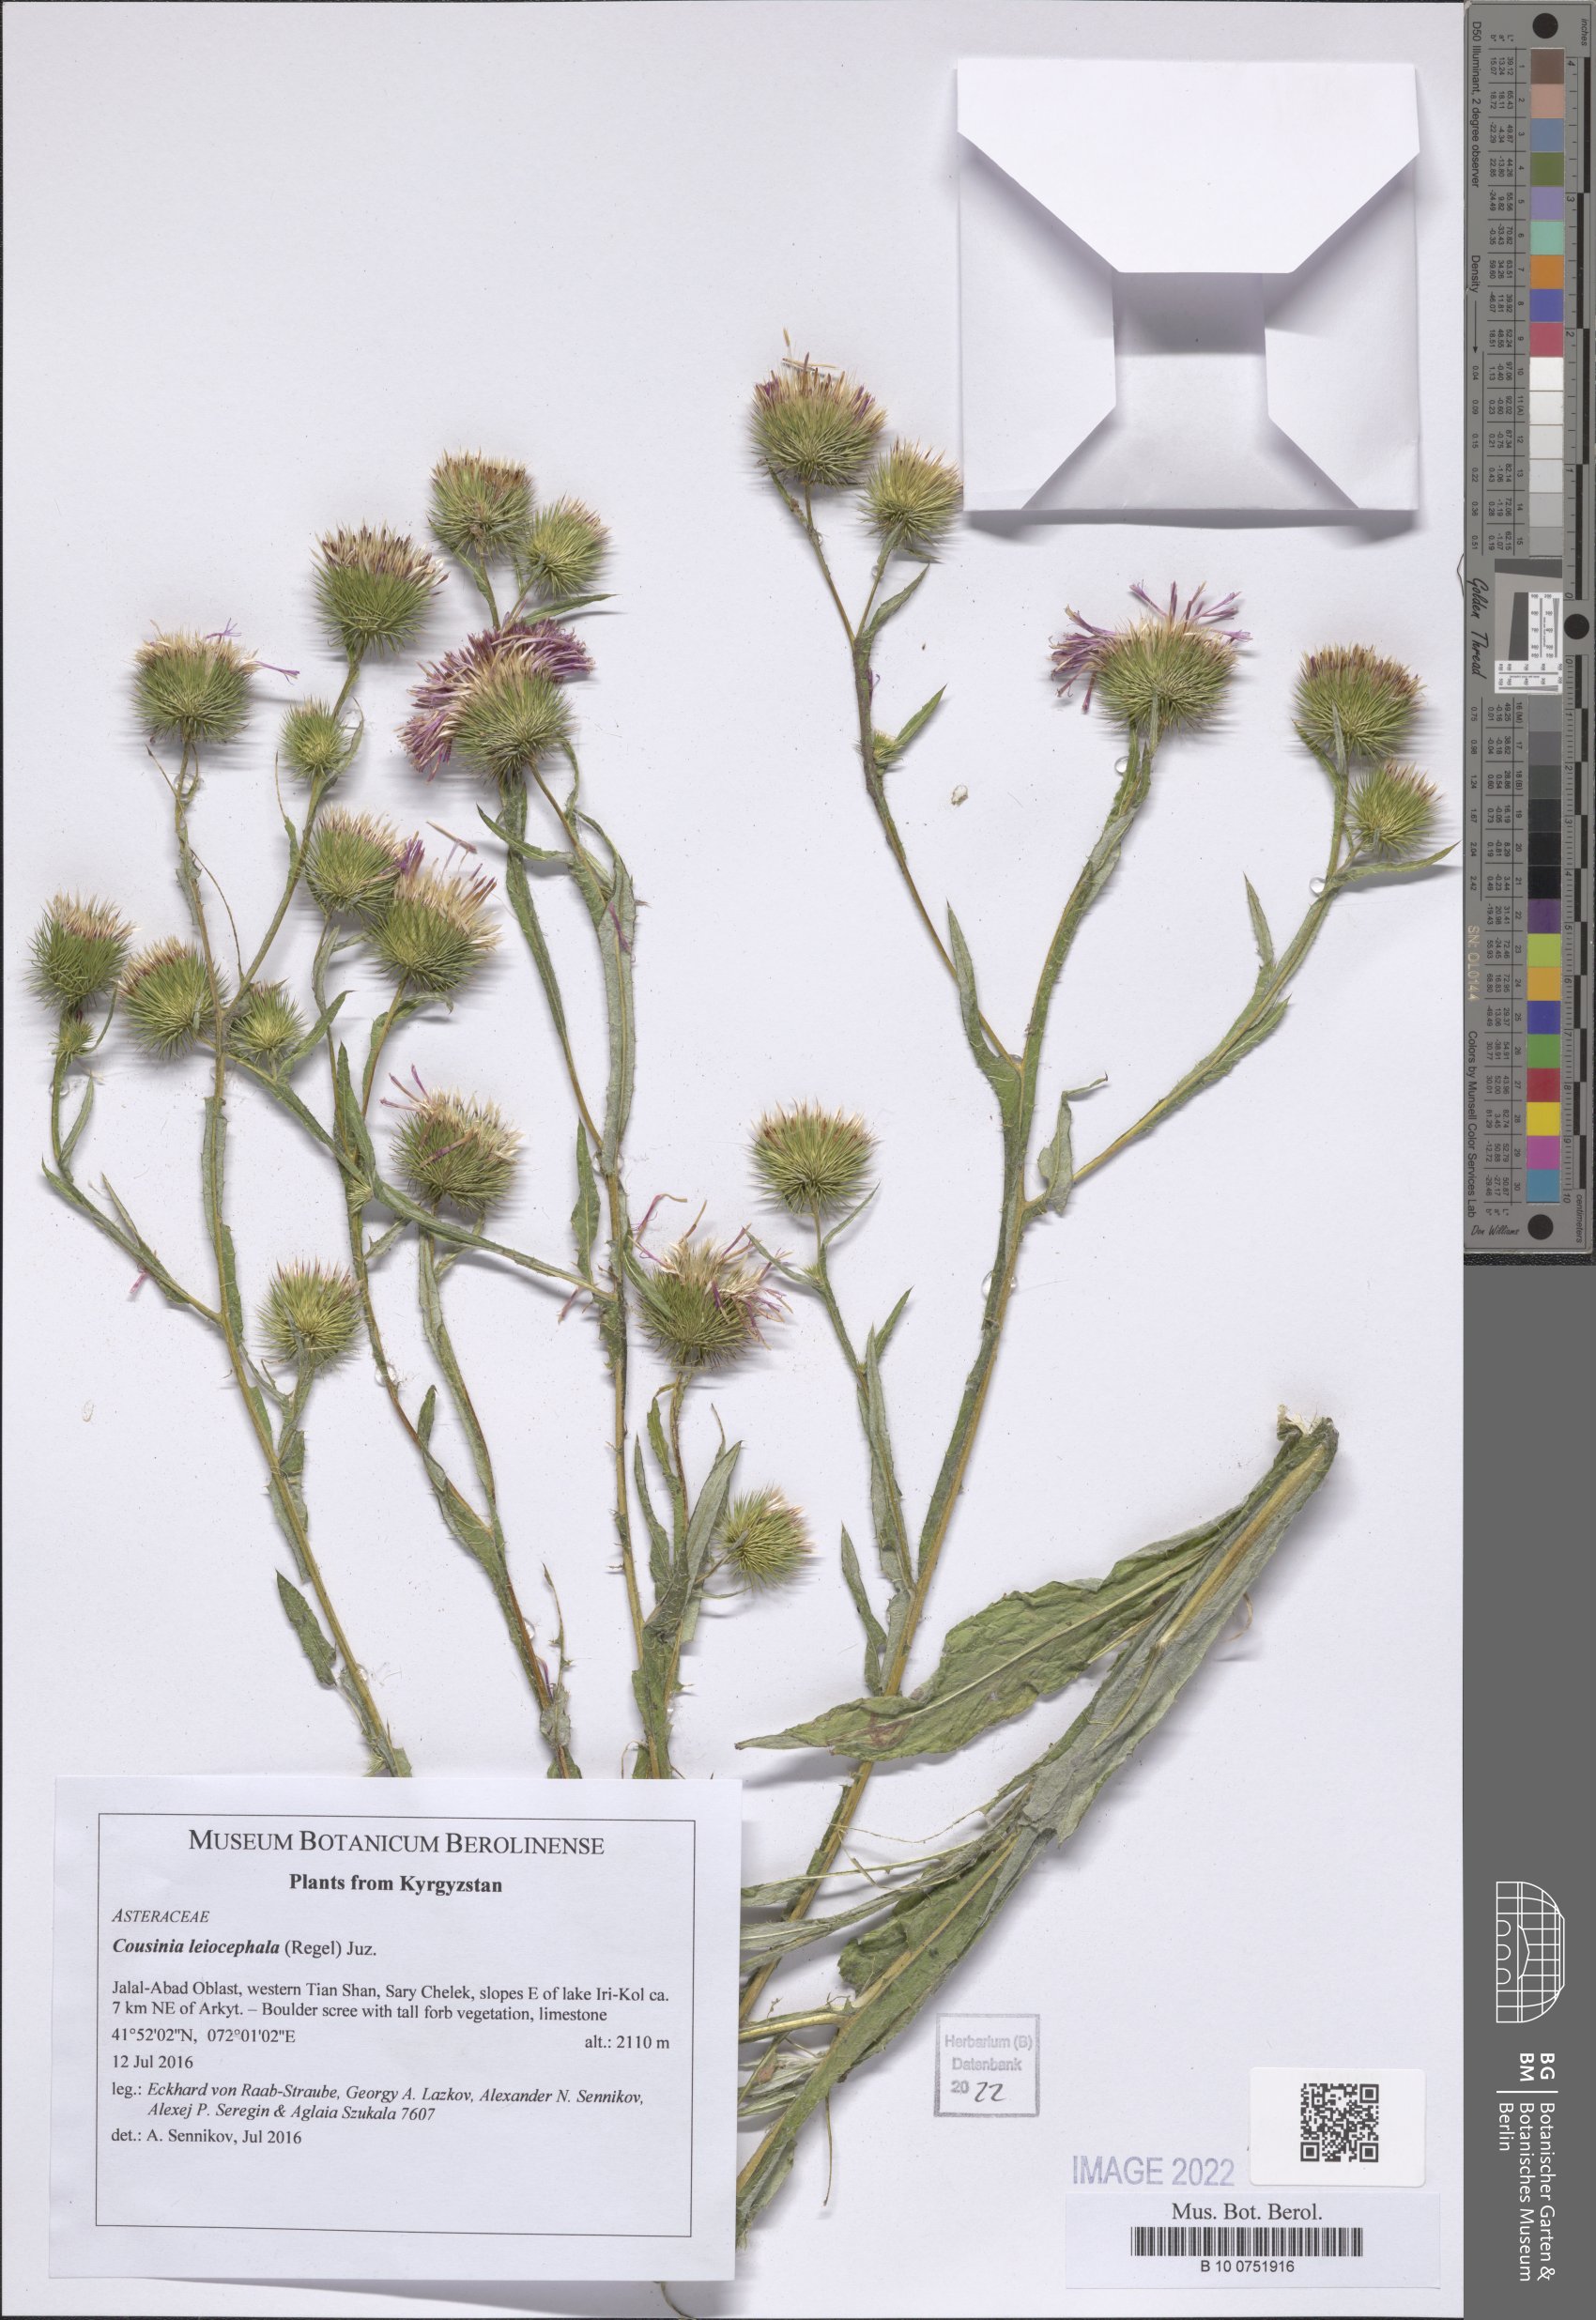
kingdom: Plantae
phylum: Tracheophyta
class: Magnoliopsida
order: Asterales
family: Asteraceae
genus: Cousinia
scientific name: Cousinia leiocephala
